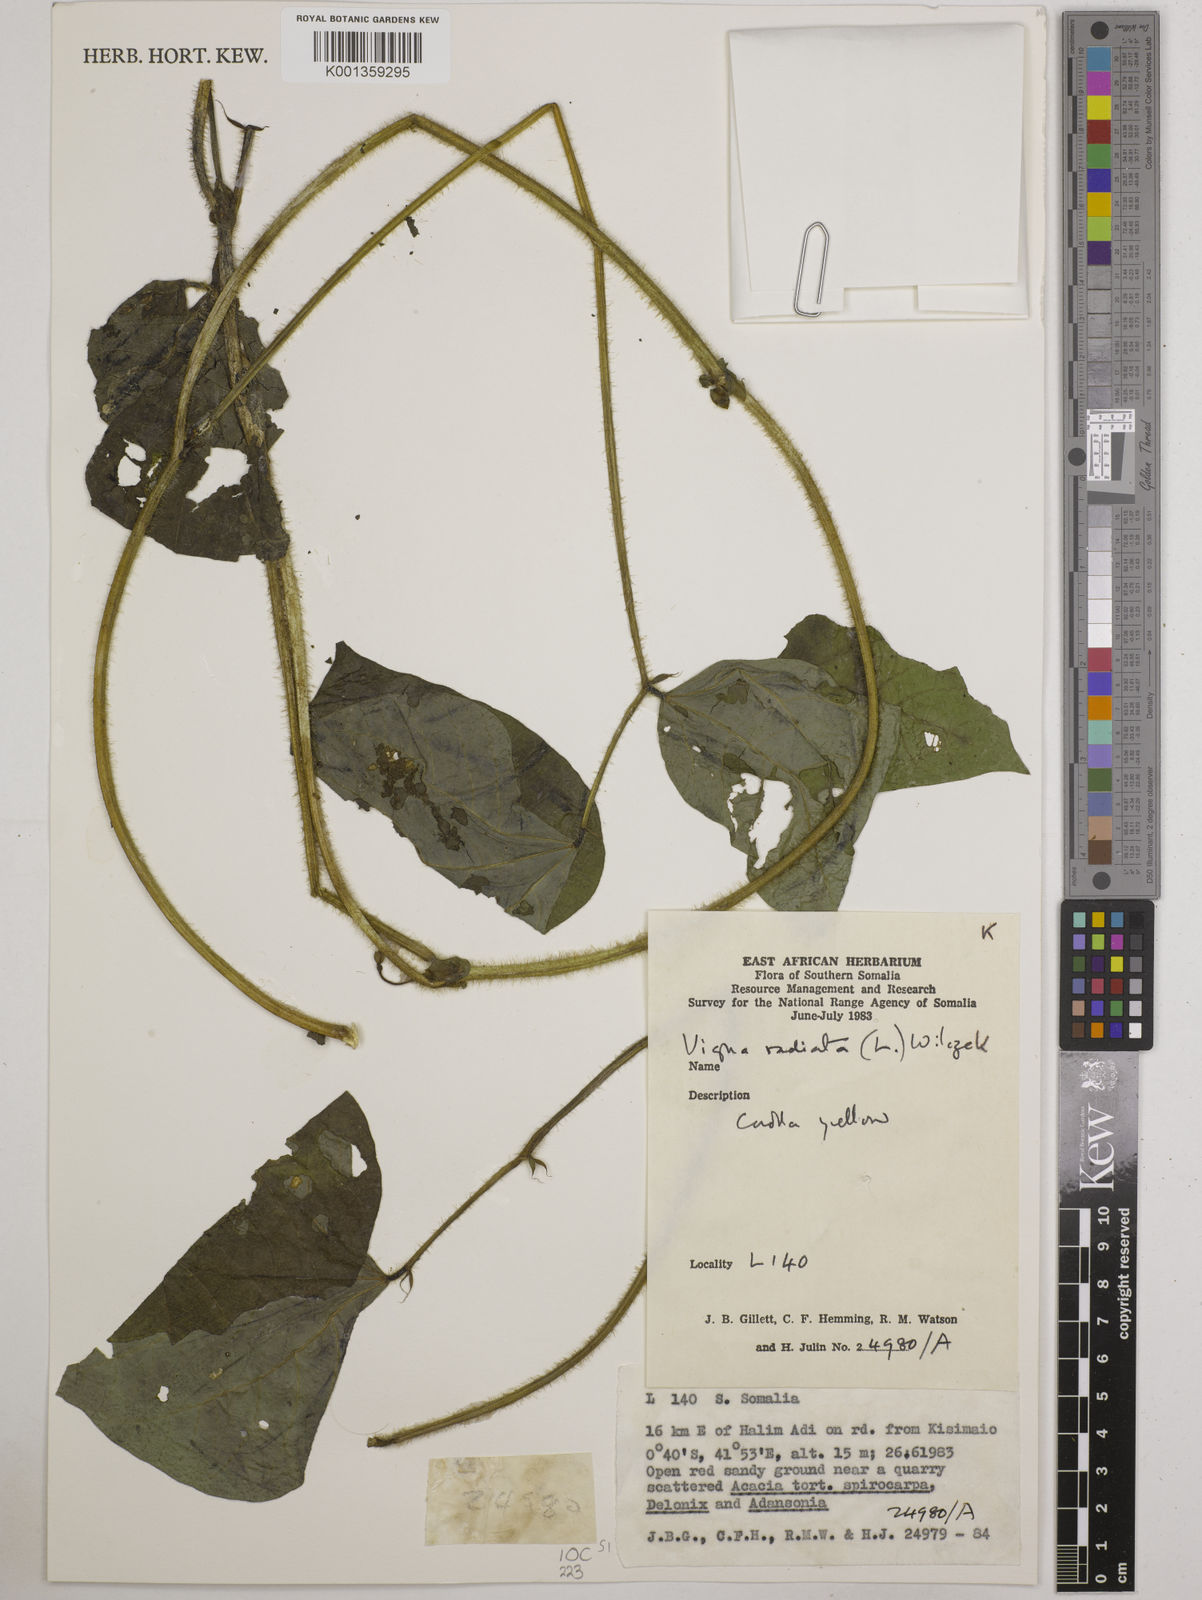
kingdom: Plantae
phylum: Tracheophyta
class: Magnoliopsida
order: Fabales
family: Fabaceae
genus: Vigna
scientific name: Vigna radiata
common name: Mung-bean
